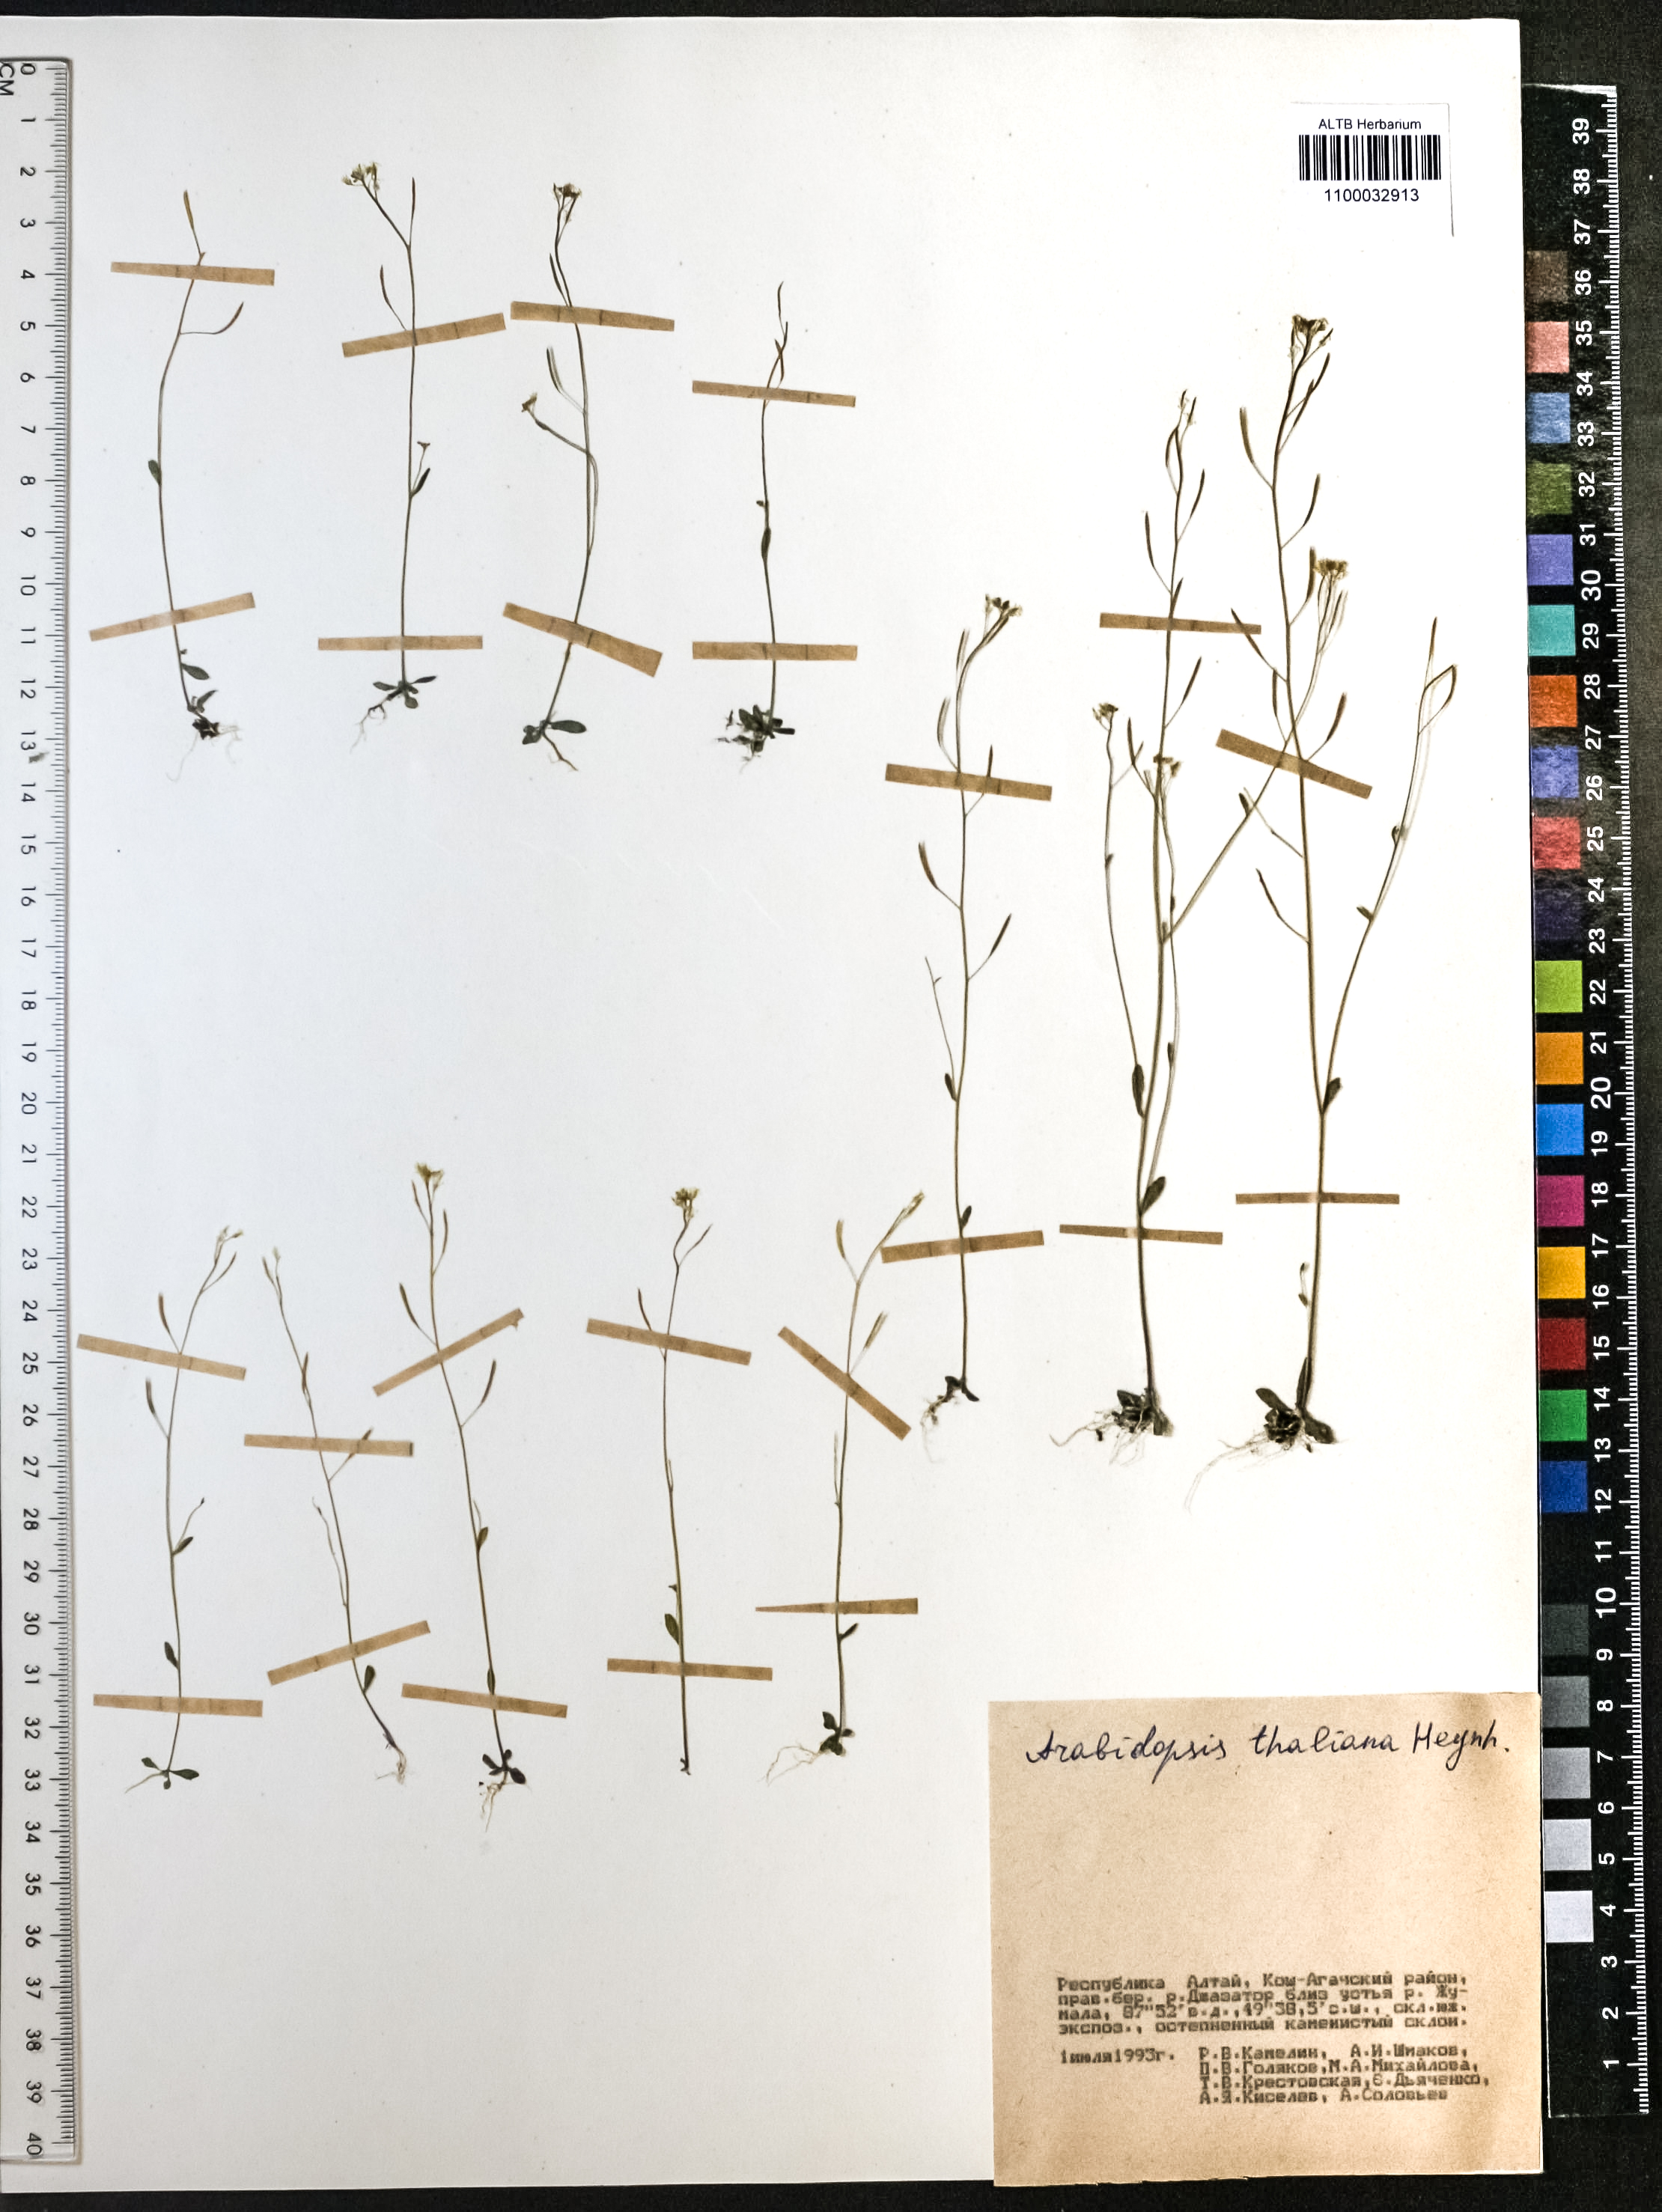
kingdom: Plantae
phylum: Tracheophyta
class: Magnoliopsida
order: Brassicales
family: Brassicaceae
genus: Arabidopsis
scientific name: Arabidopsis thaliana
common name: Thale cress
